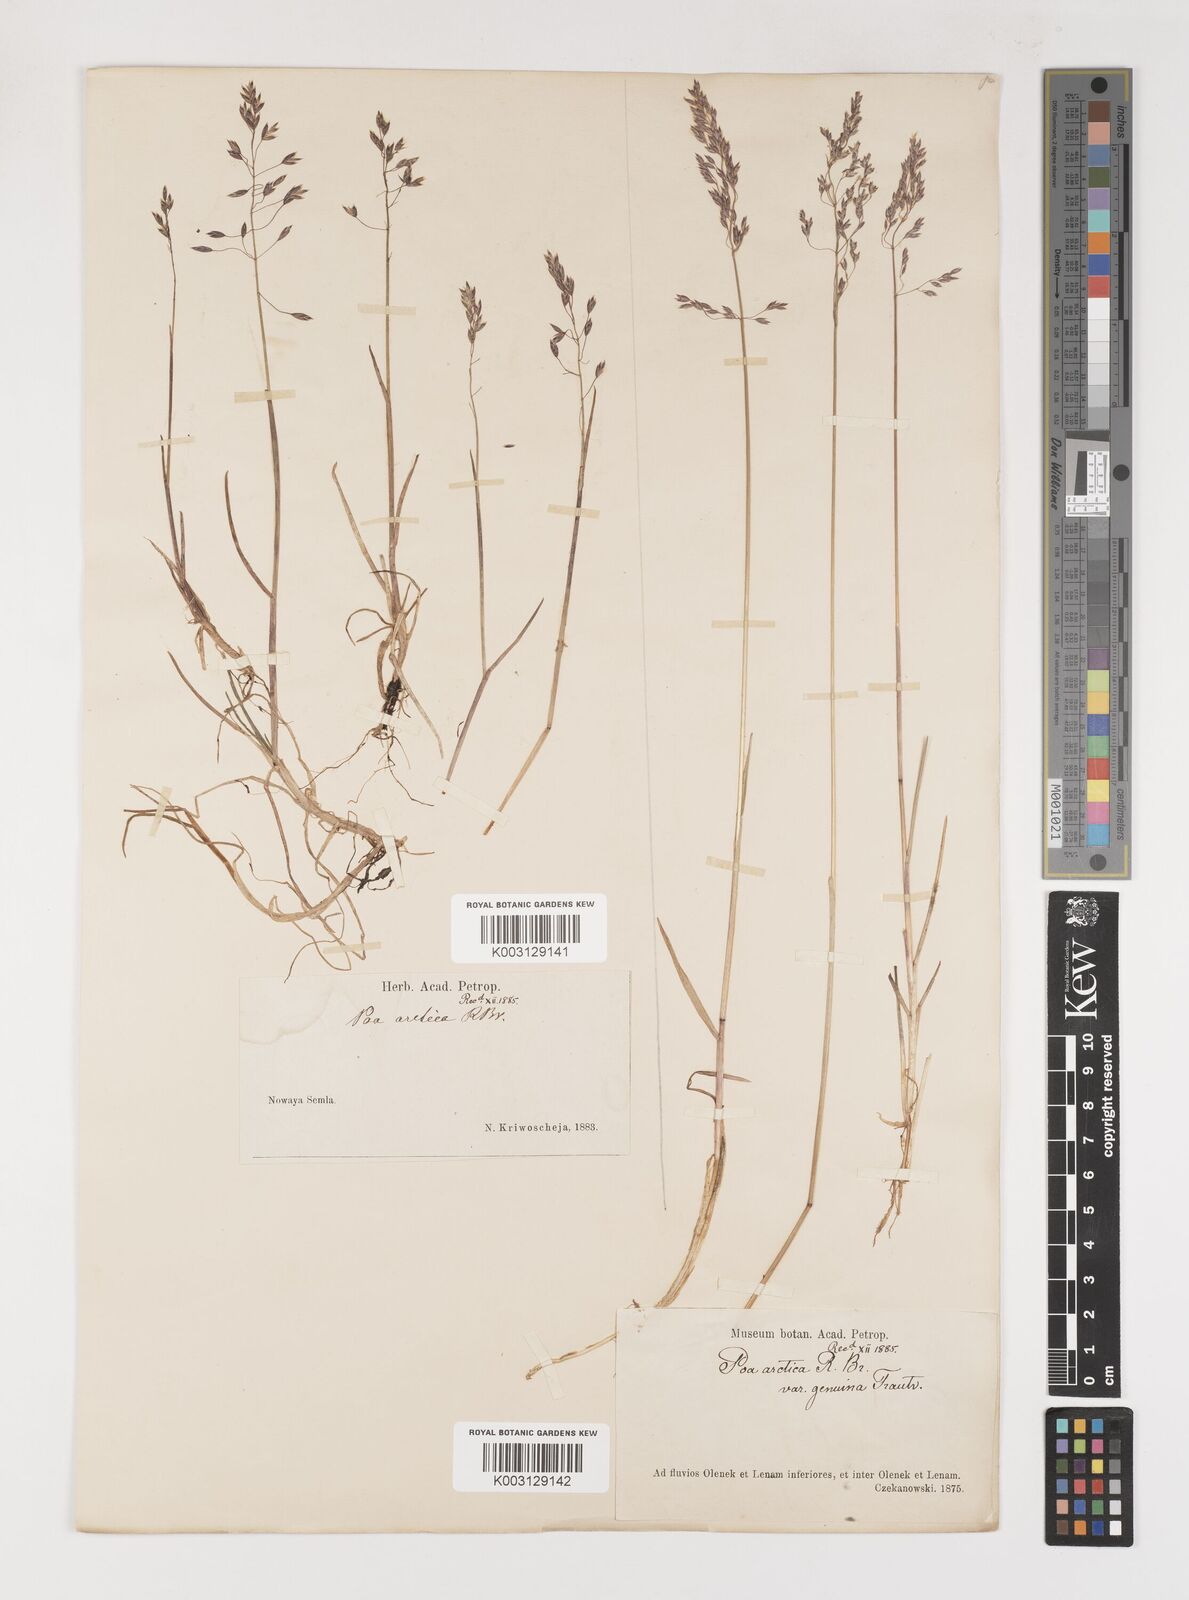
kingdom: Plantae
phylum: Tracheophyta
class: Liliopsida
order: Poales
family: Poaceae
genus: Poa
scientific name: Poa arctica
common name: Arctic bluegrass
